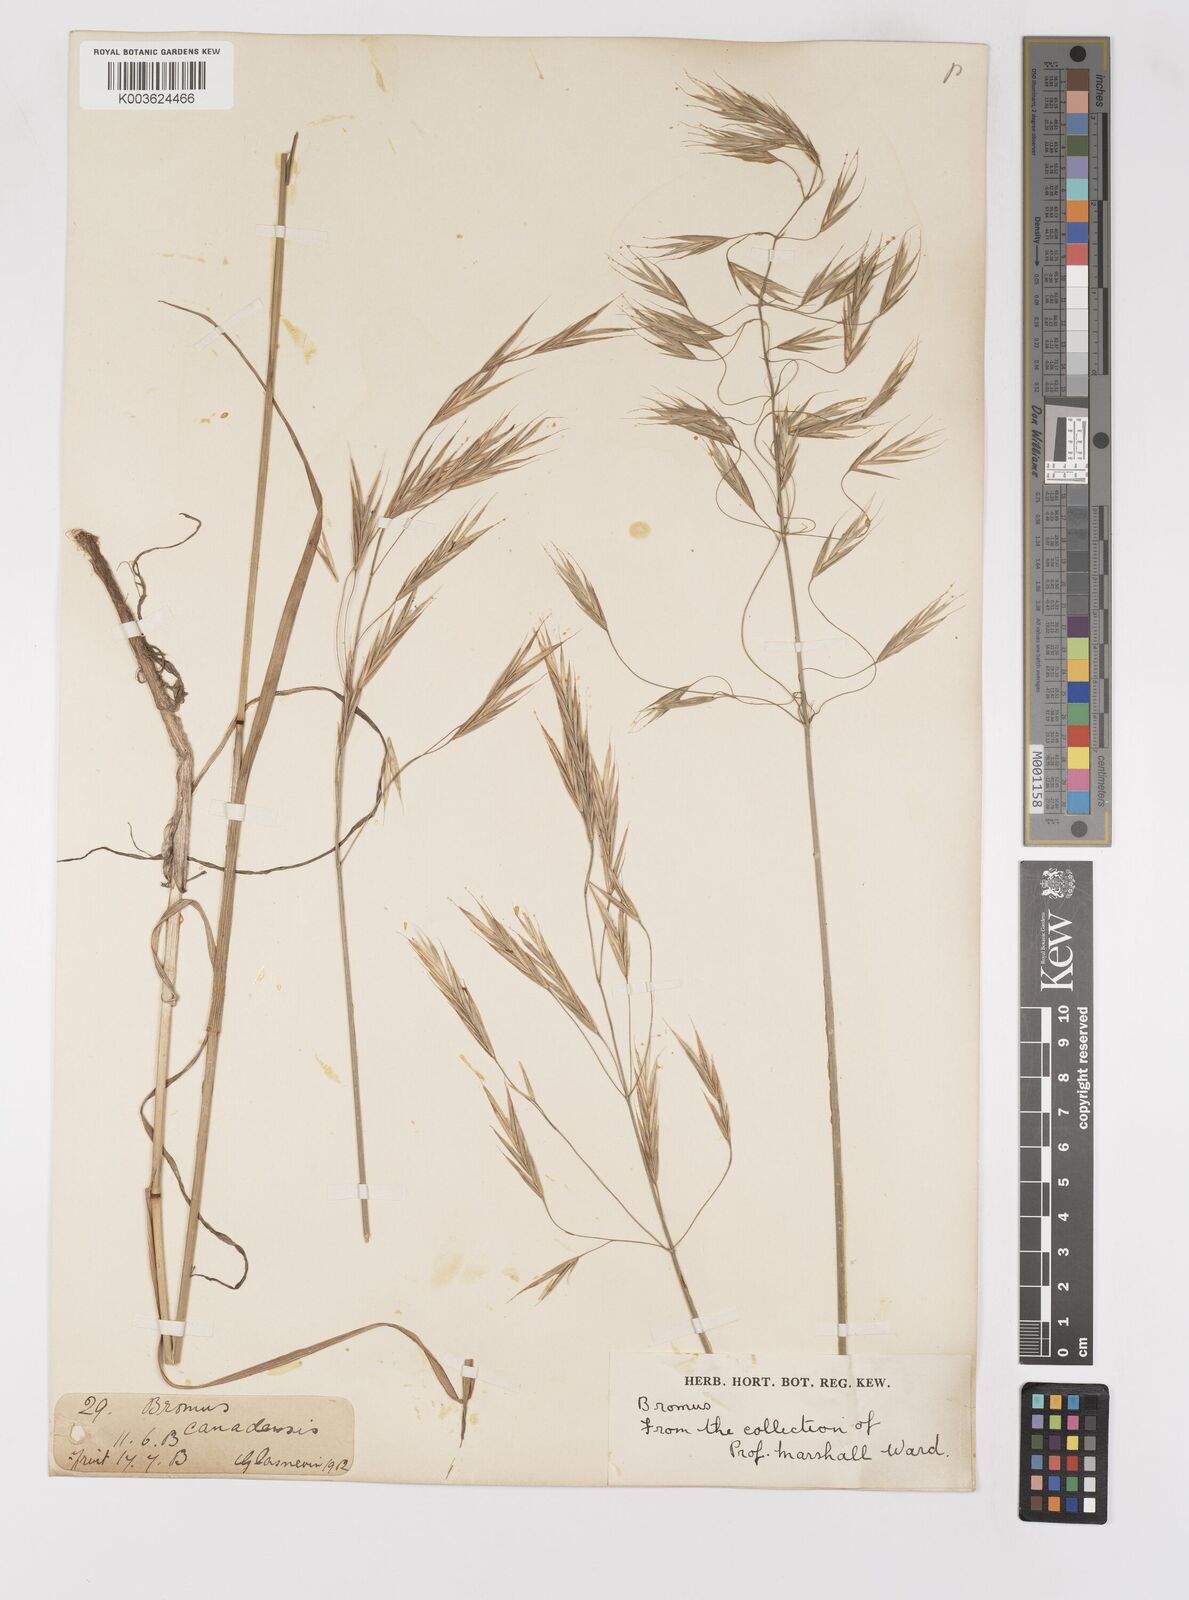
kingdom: Plantae
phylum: Tracheophyta
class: Liliopsida
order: Poales
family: Poaceae
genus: Bromus
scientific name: Bromus
